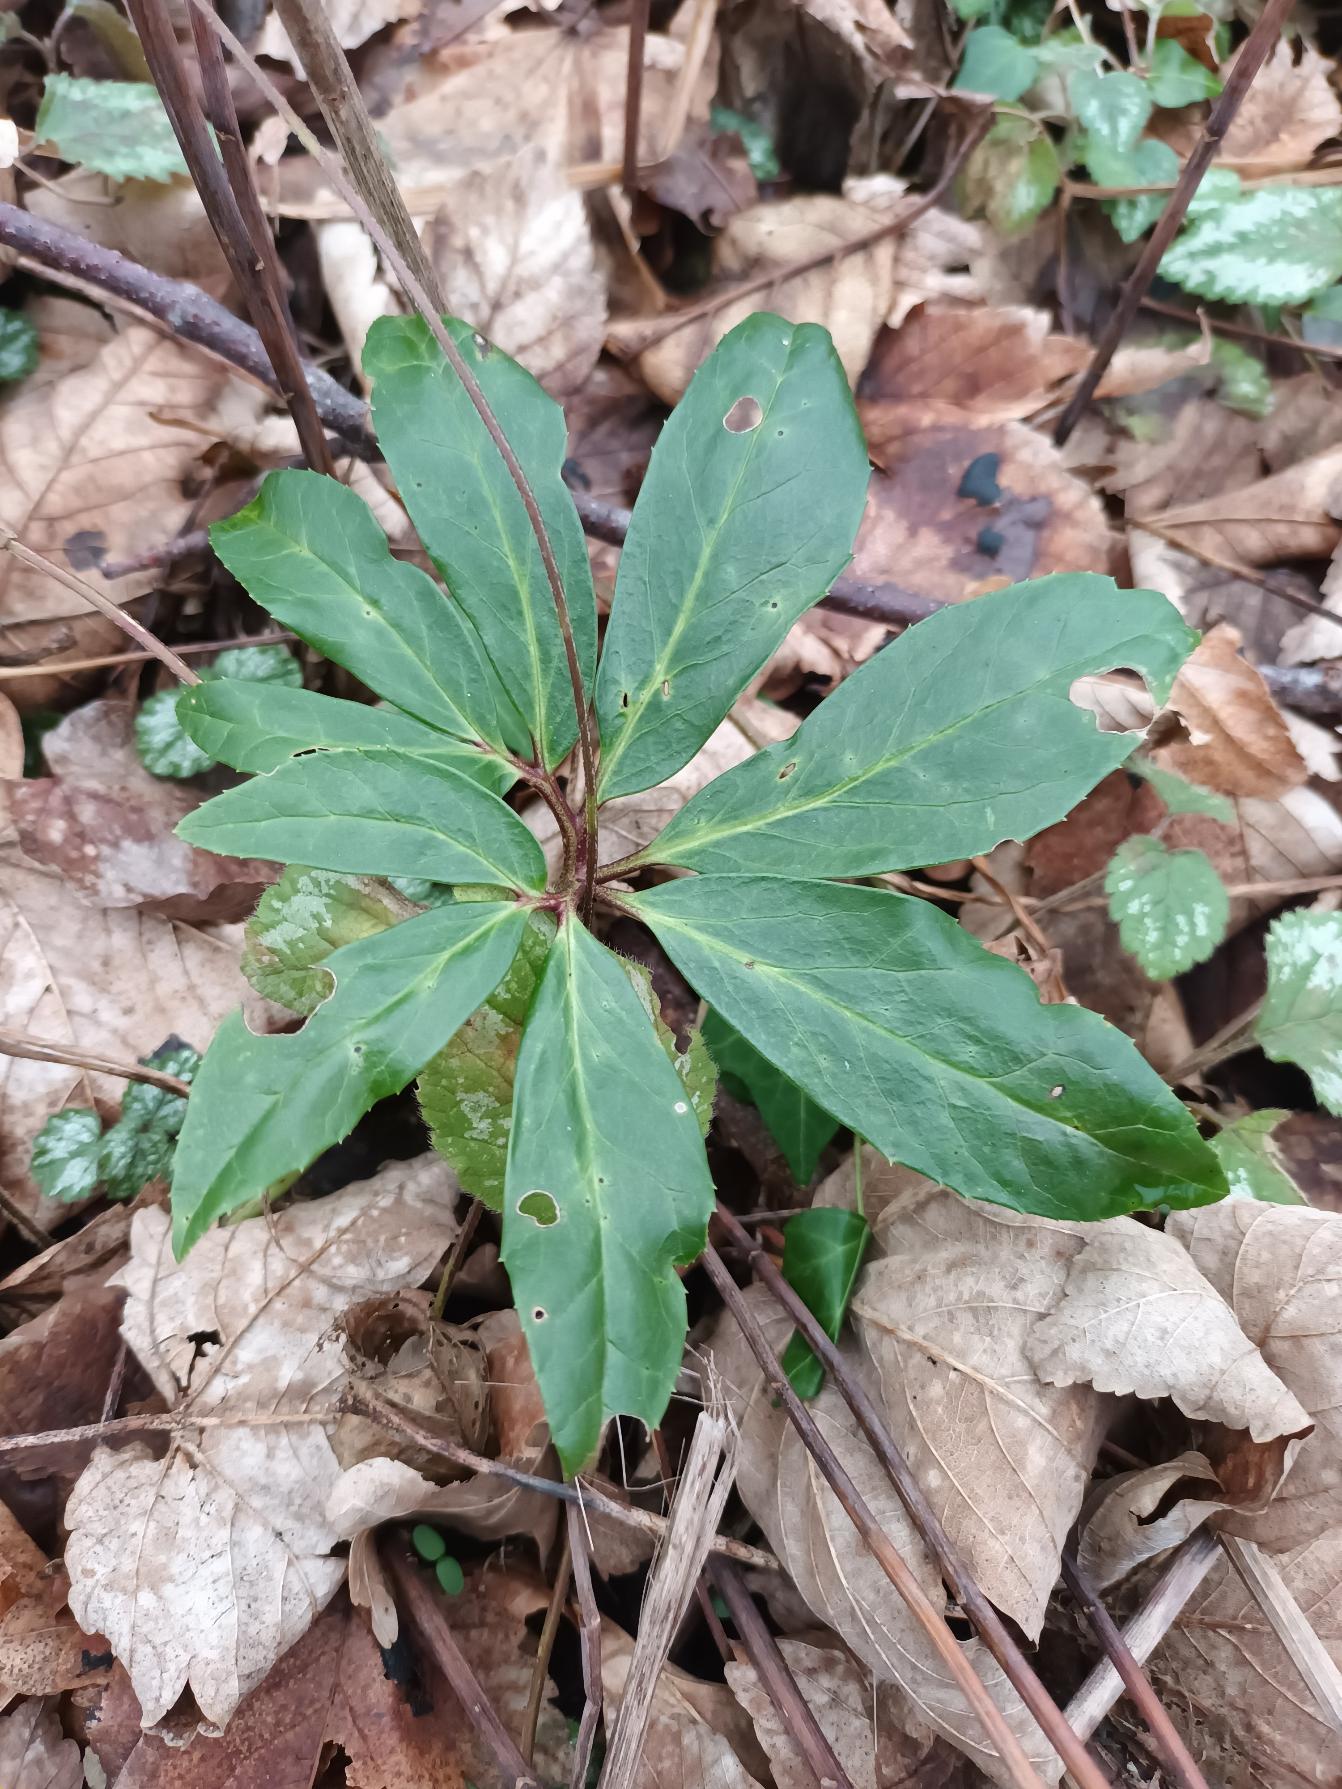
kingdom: Plantae
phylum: Tracheophyta
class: Magnoliopsida
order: Ranunculales
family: Ranunculaceae
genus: Helleborus
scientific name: Helleborus niger
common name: Hvid julerose
